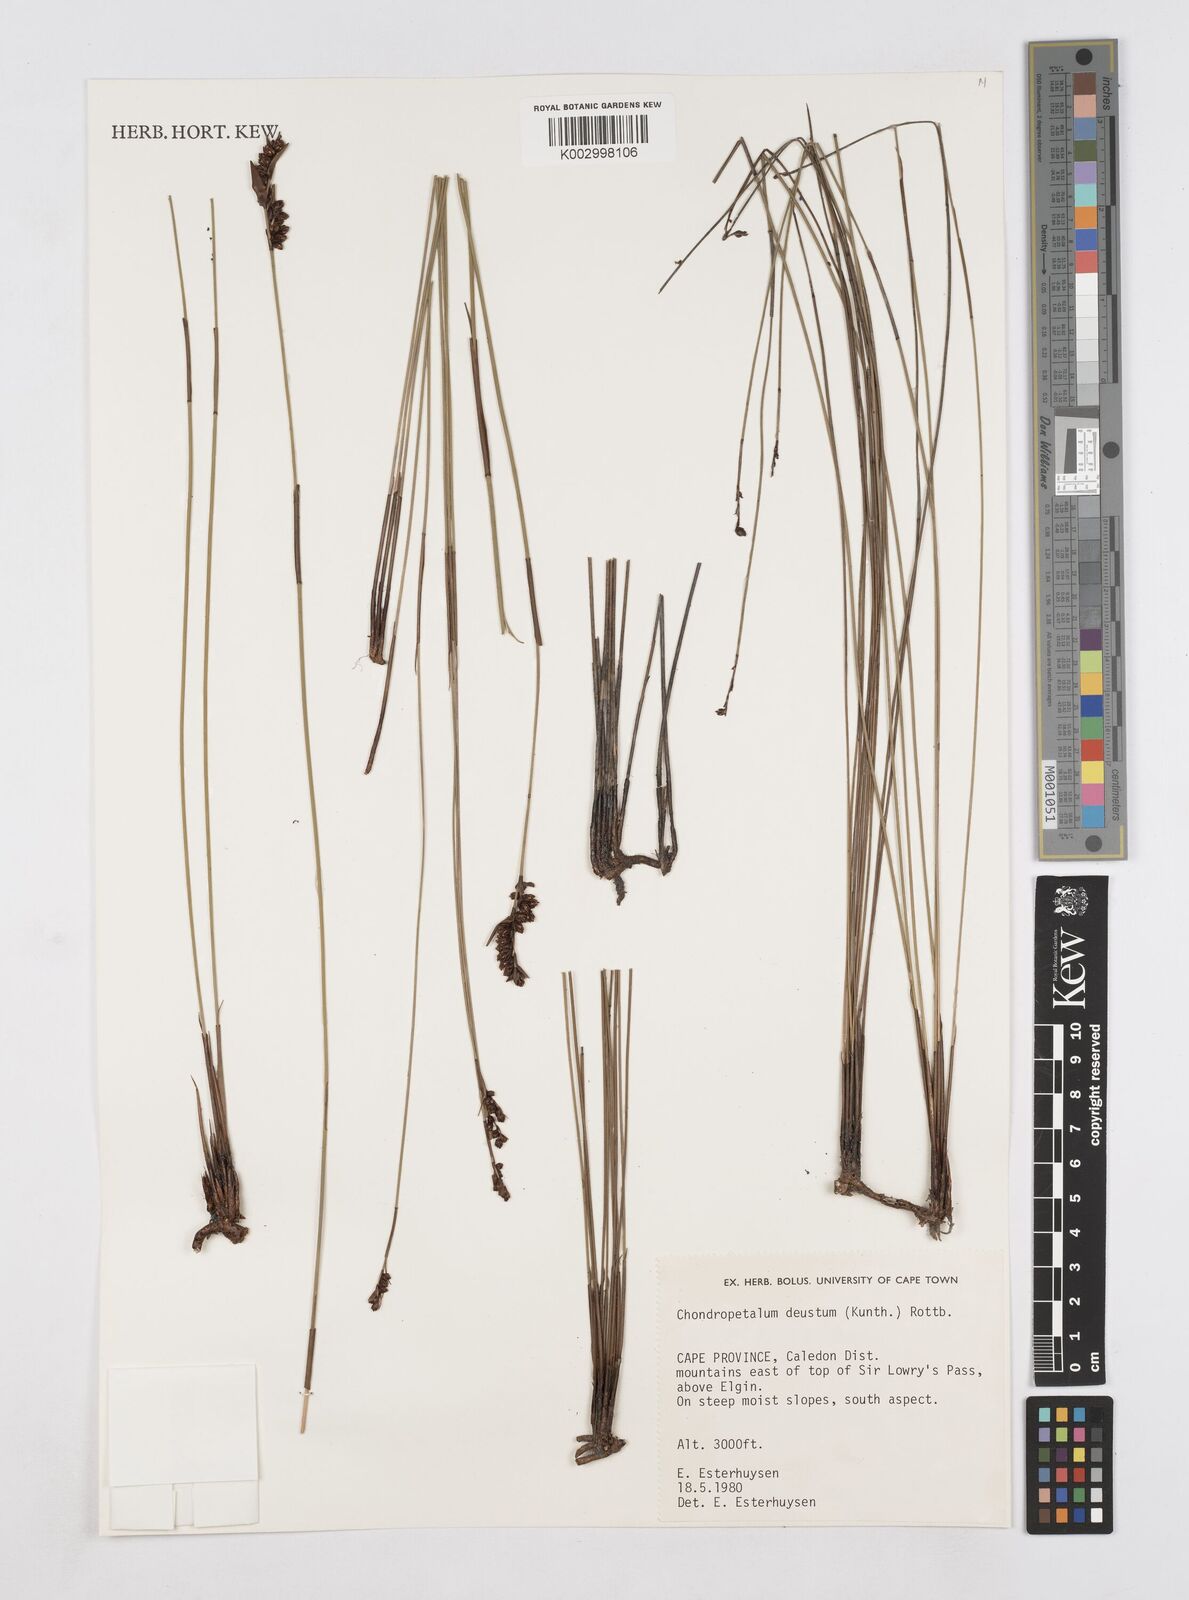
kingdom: Plantae
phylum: Tracheophyta
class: Liliopsida
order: Poales
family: Restionaceae
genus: Elegia
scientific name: Elegia deusta
